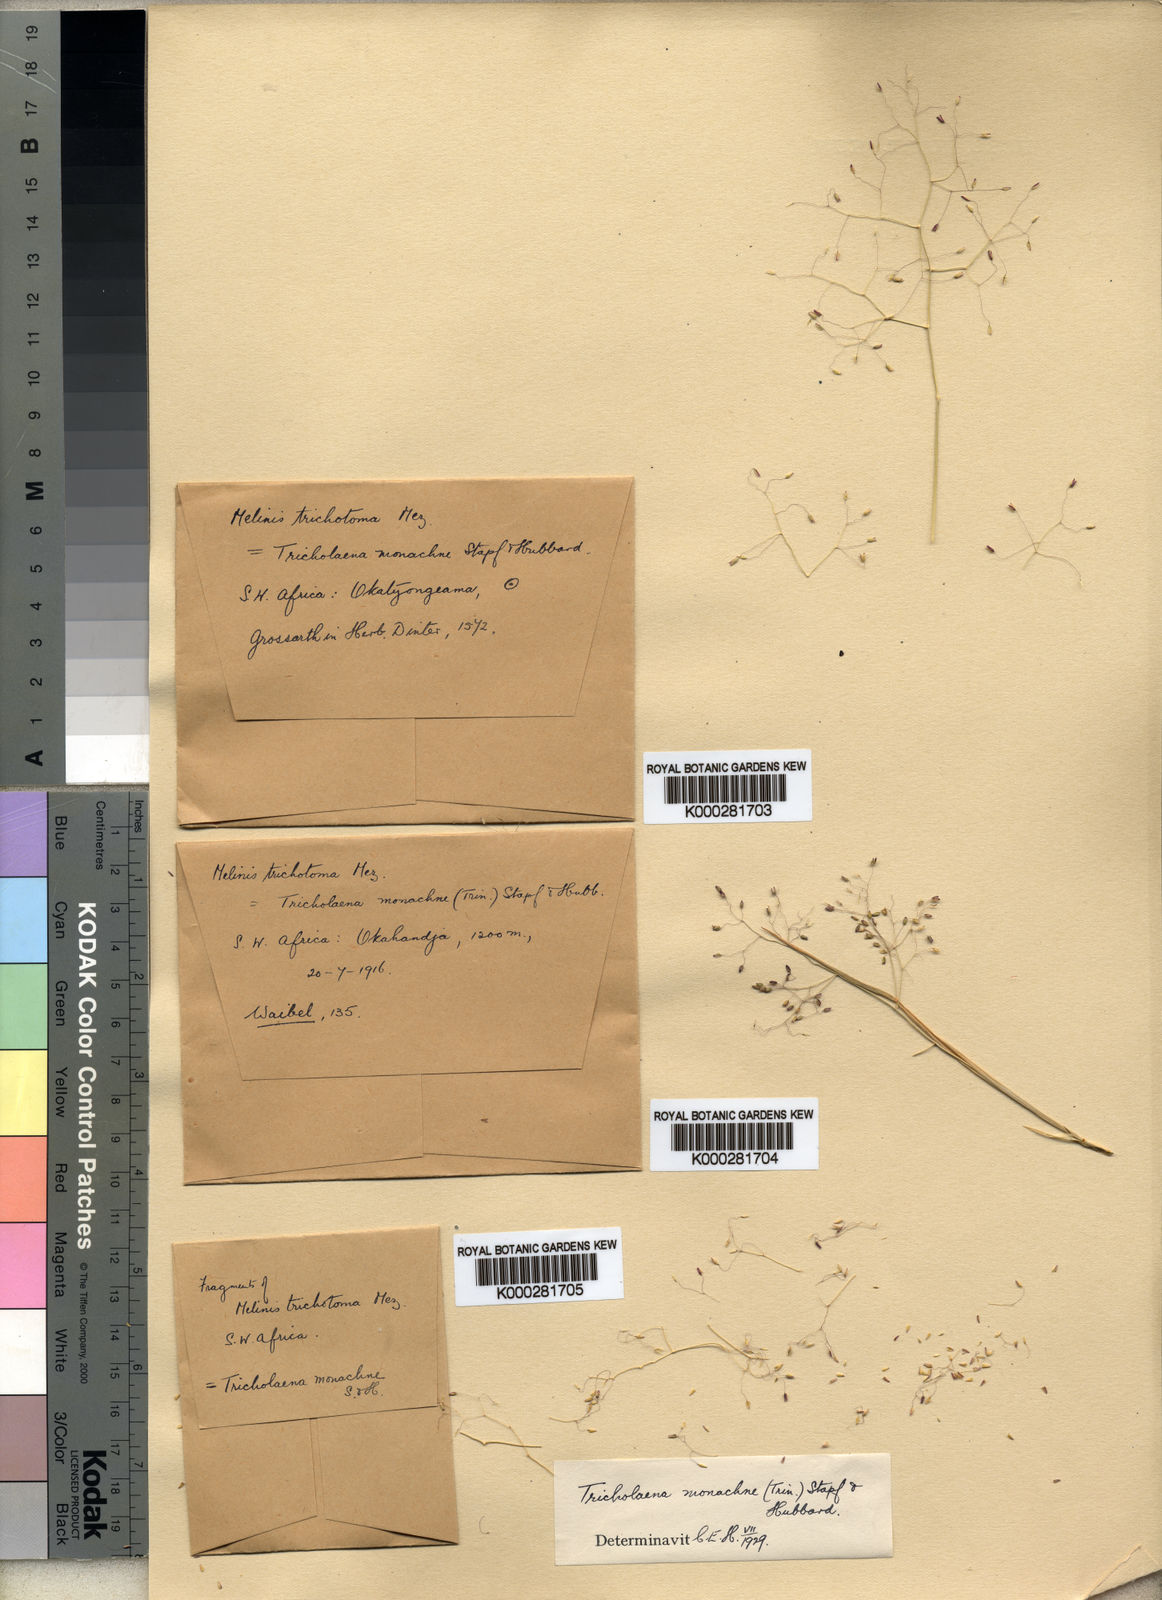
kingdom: Plantae
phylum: Tracheophyta
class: Liliopsida
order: Poales
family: Poaceae
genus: Tricholaena
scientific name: Tricholaena monachne
